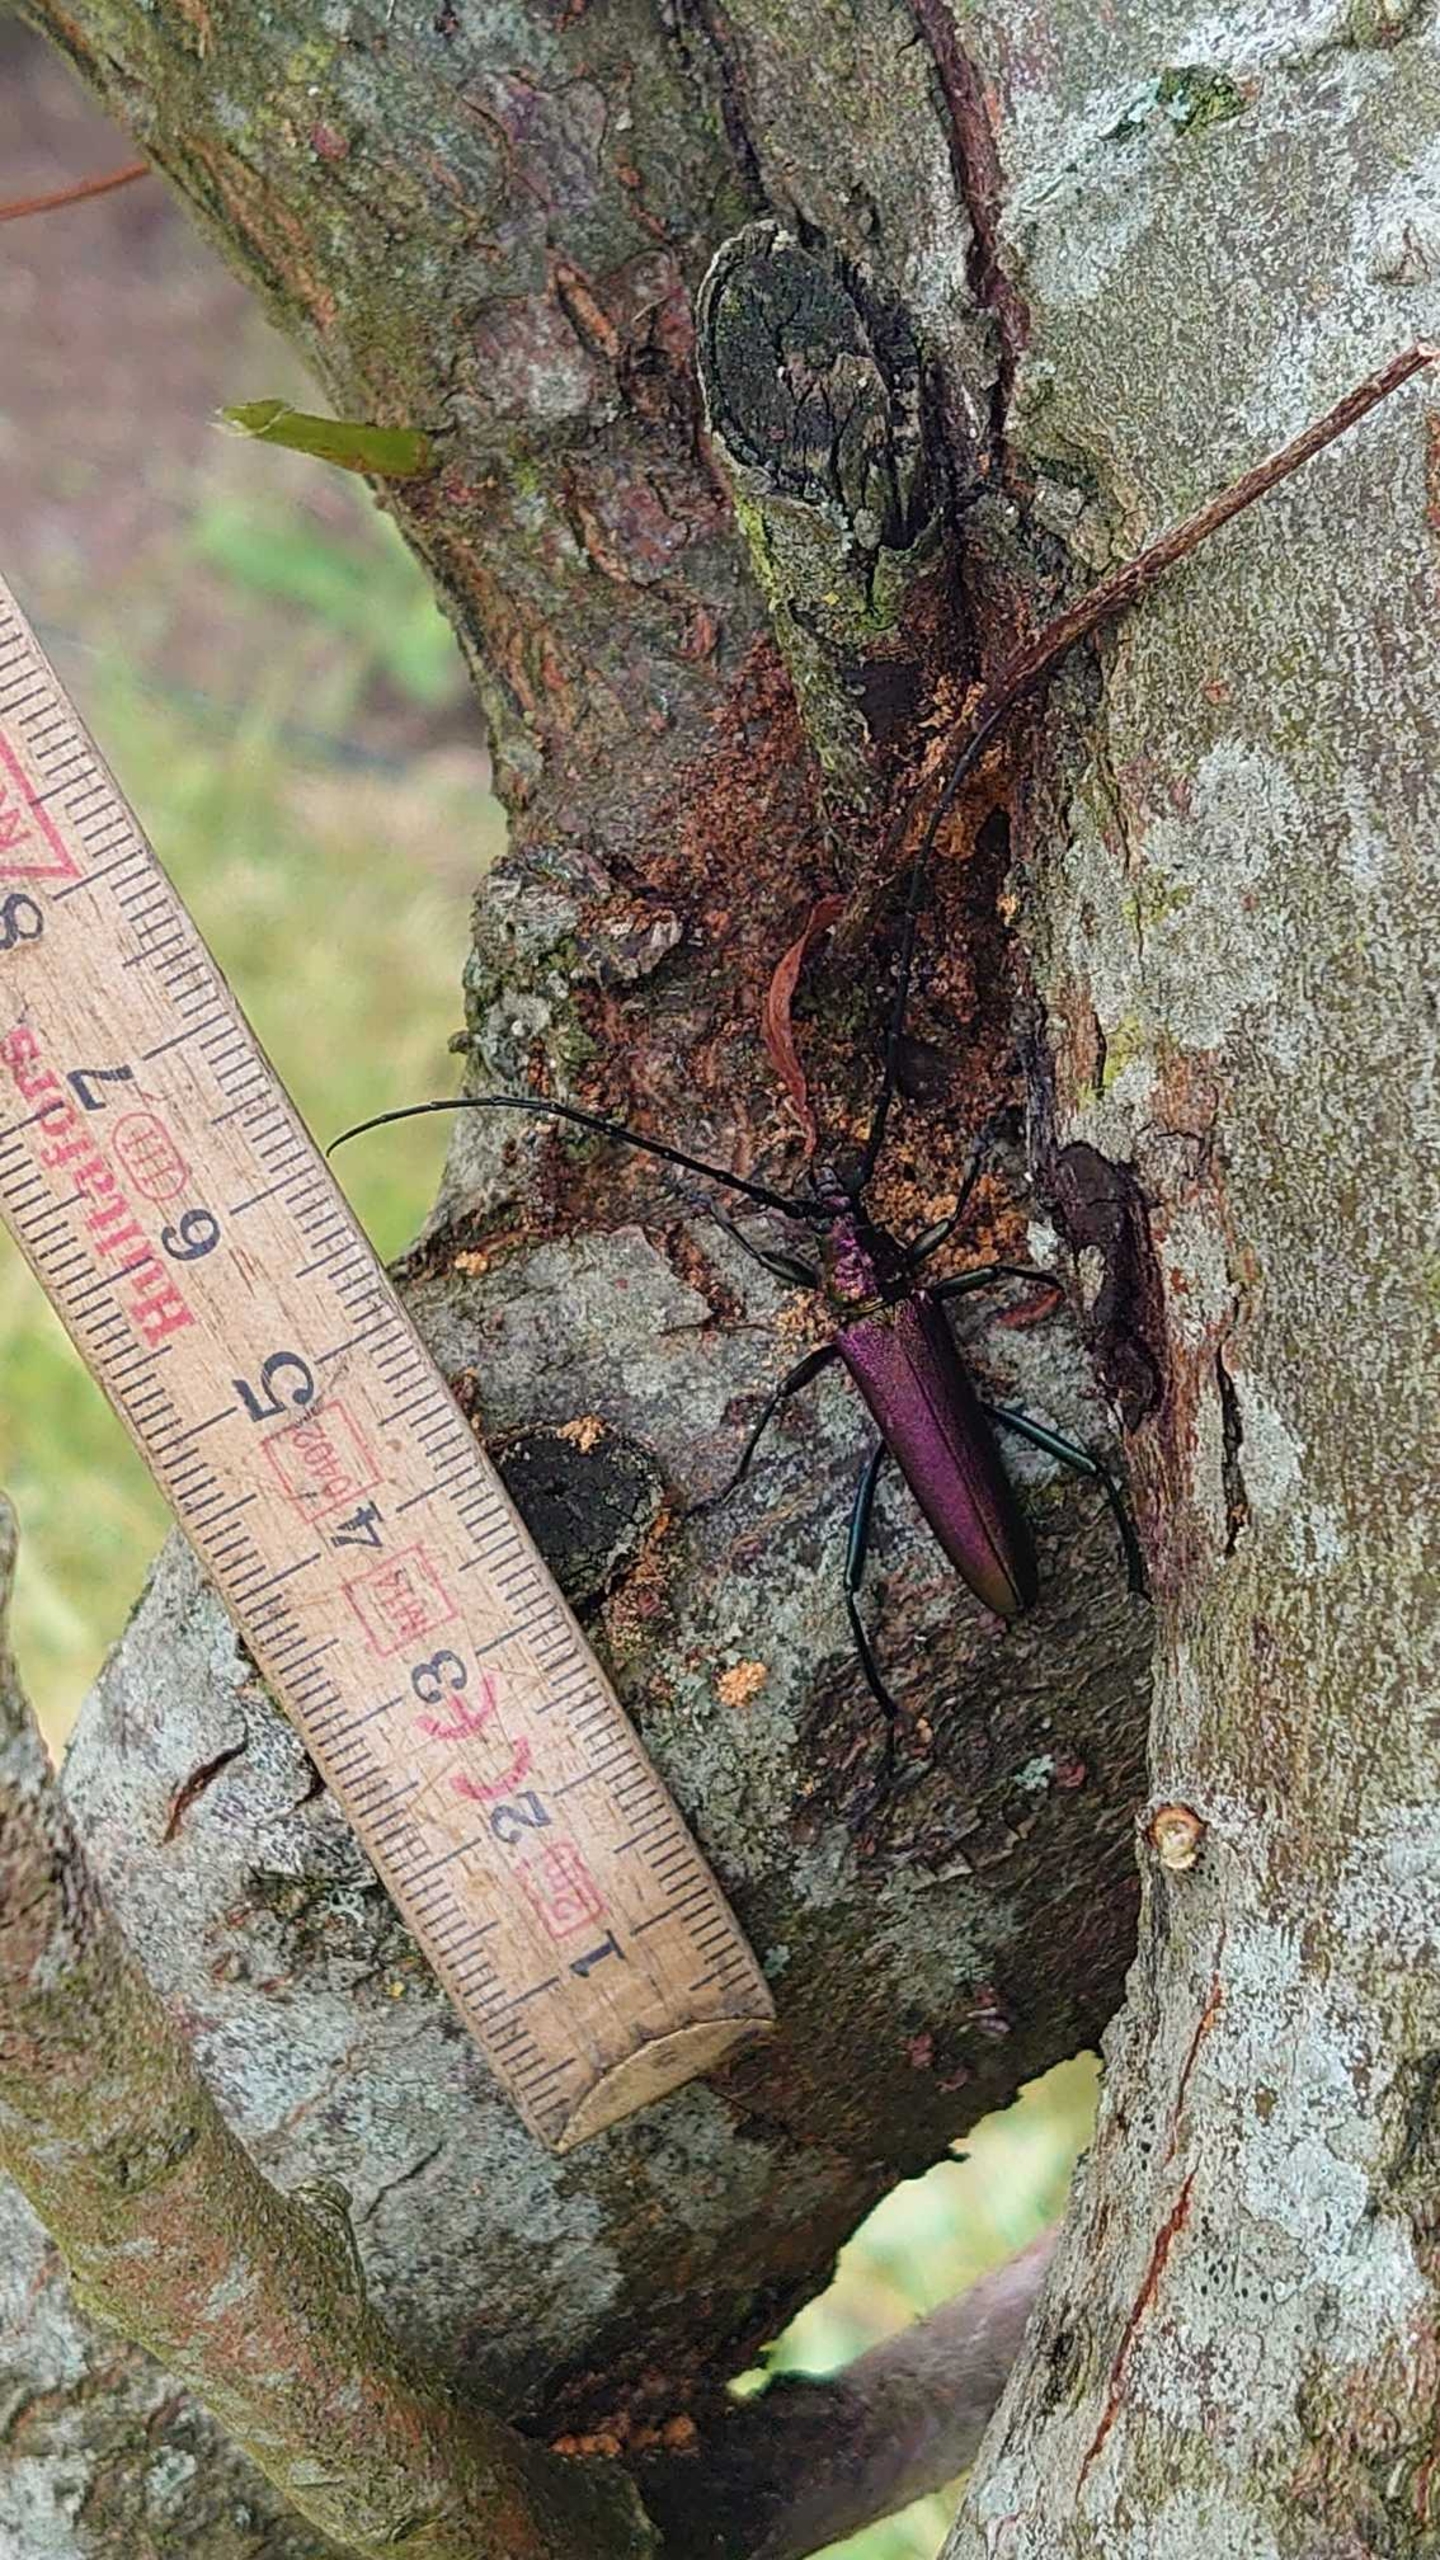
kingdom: Animalia
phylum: Arthropoda
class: Insecta
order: Coleoptera
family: Cerambycidae
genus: Aromia
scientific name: Aromia moschata
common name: Moskusbuk
